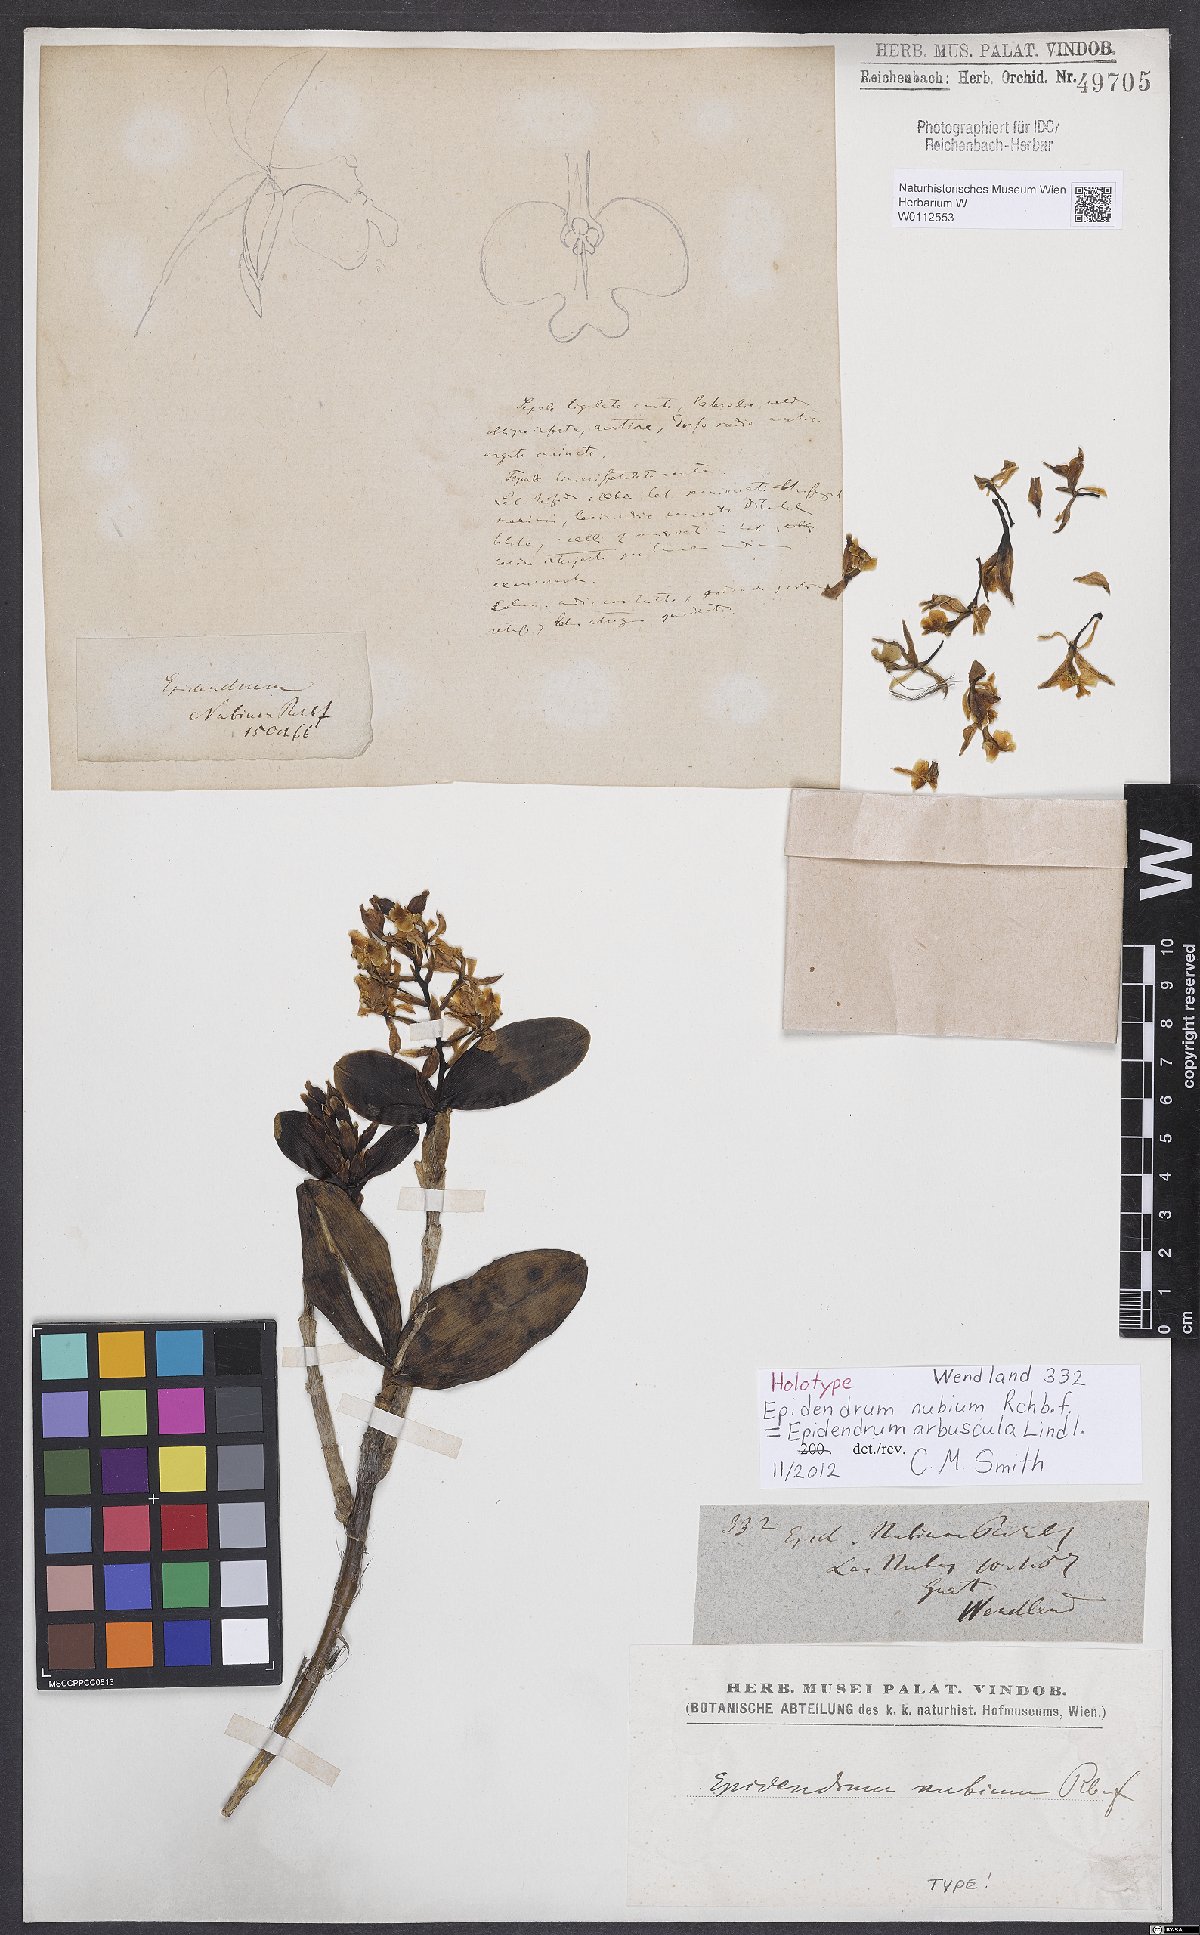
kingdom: Plantae
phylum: Tracheophyta
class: Liliopsida
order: Asparagales
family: Orchidaceae
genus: Epidendrum
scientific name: Epidendrum nubium
